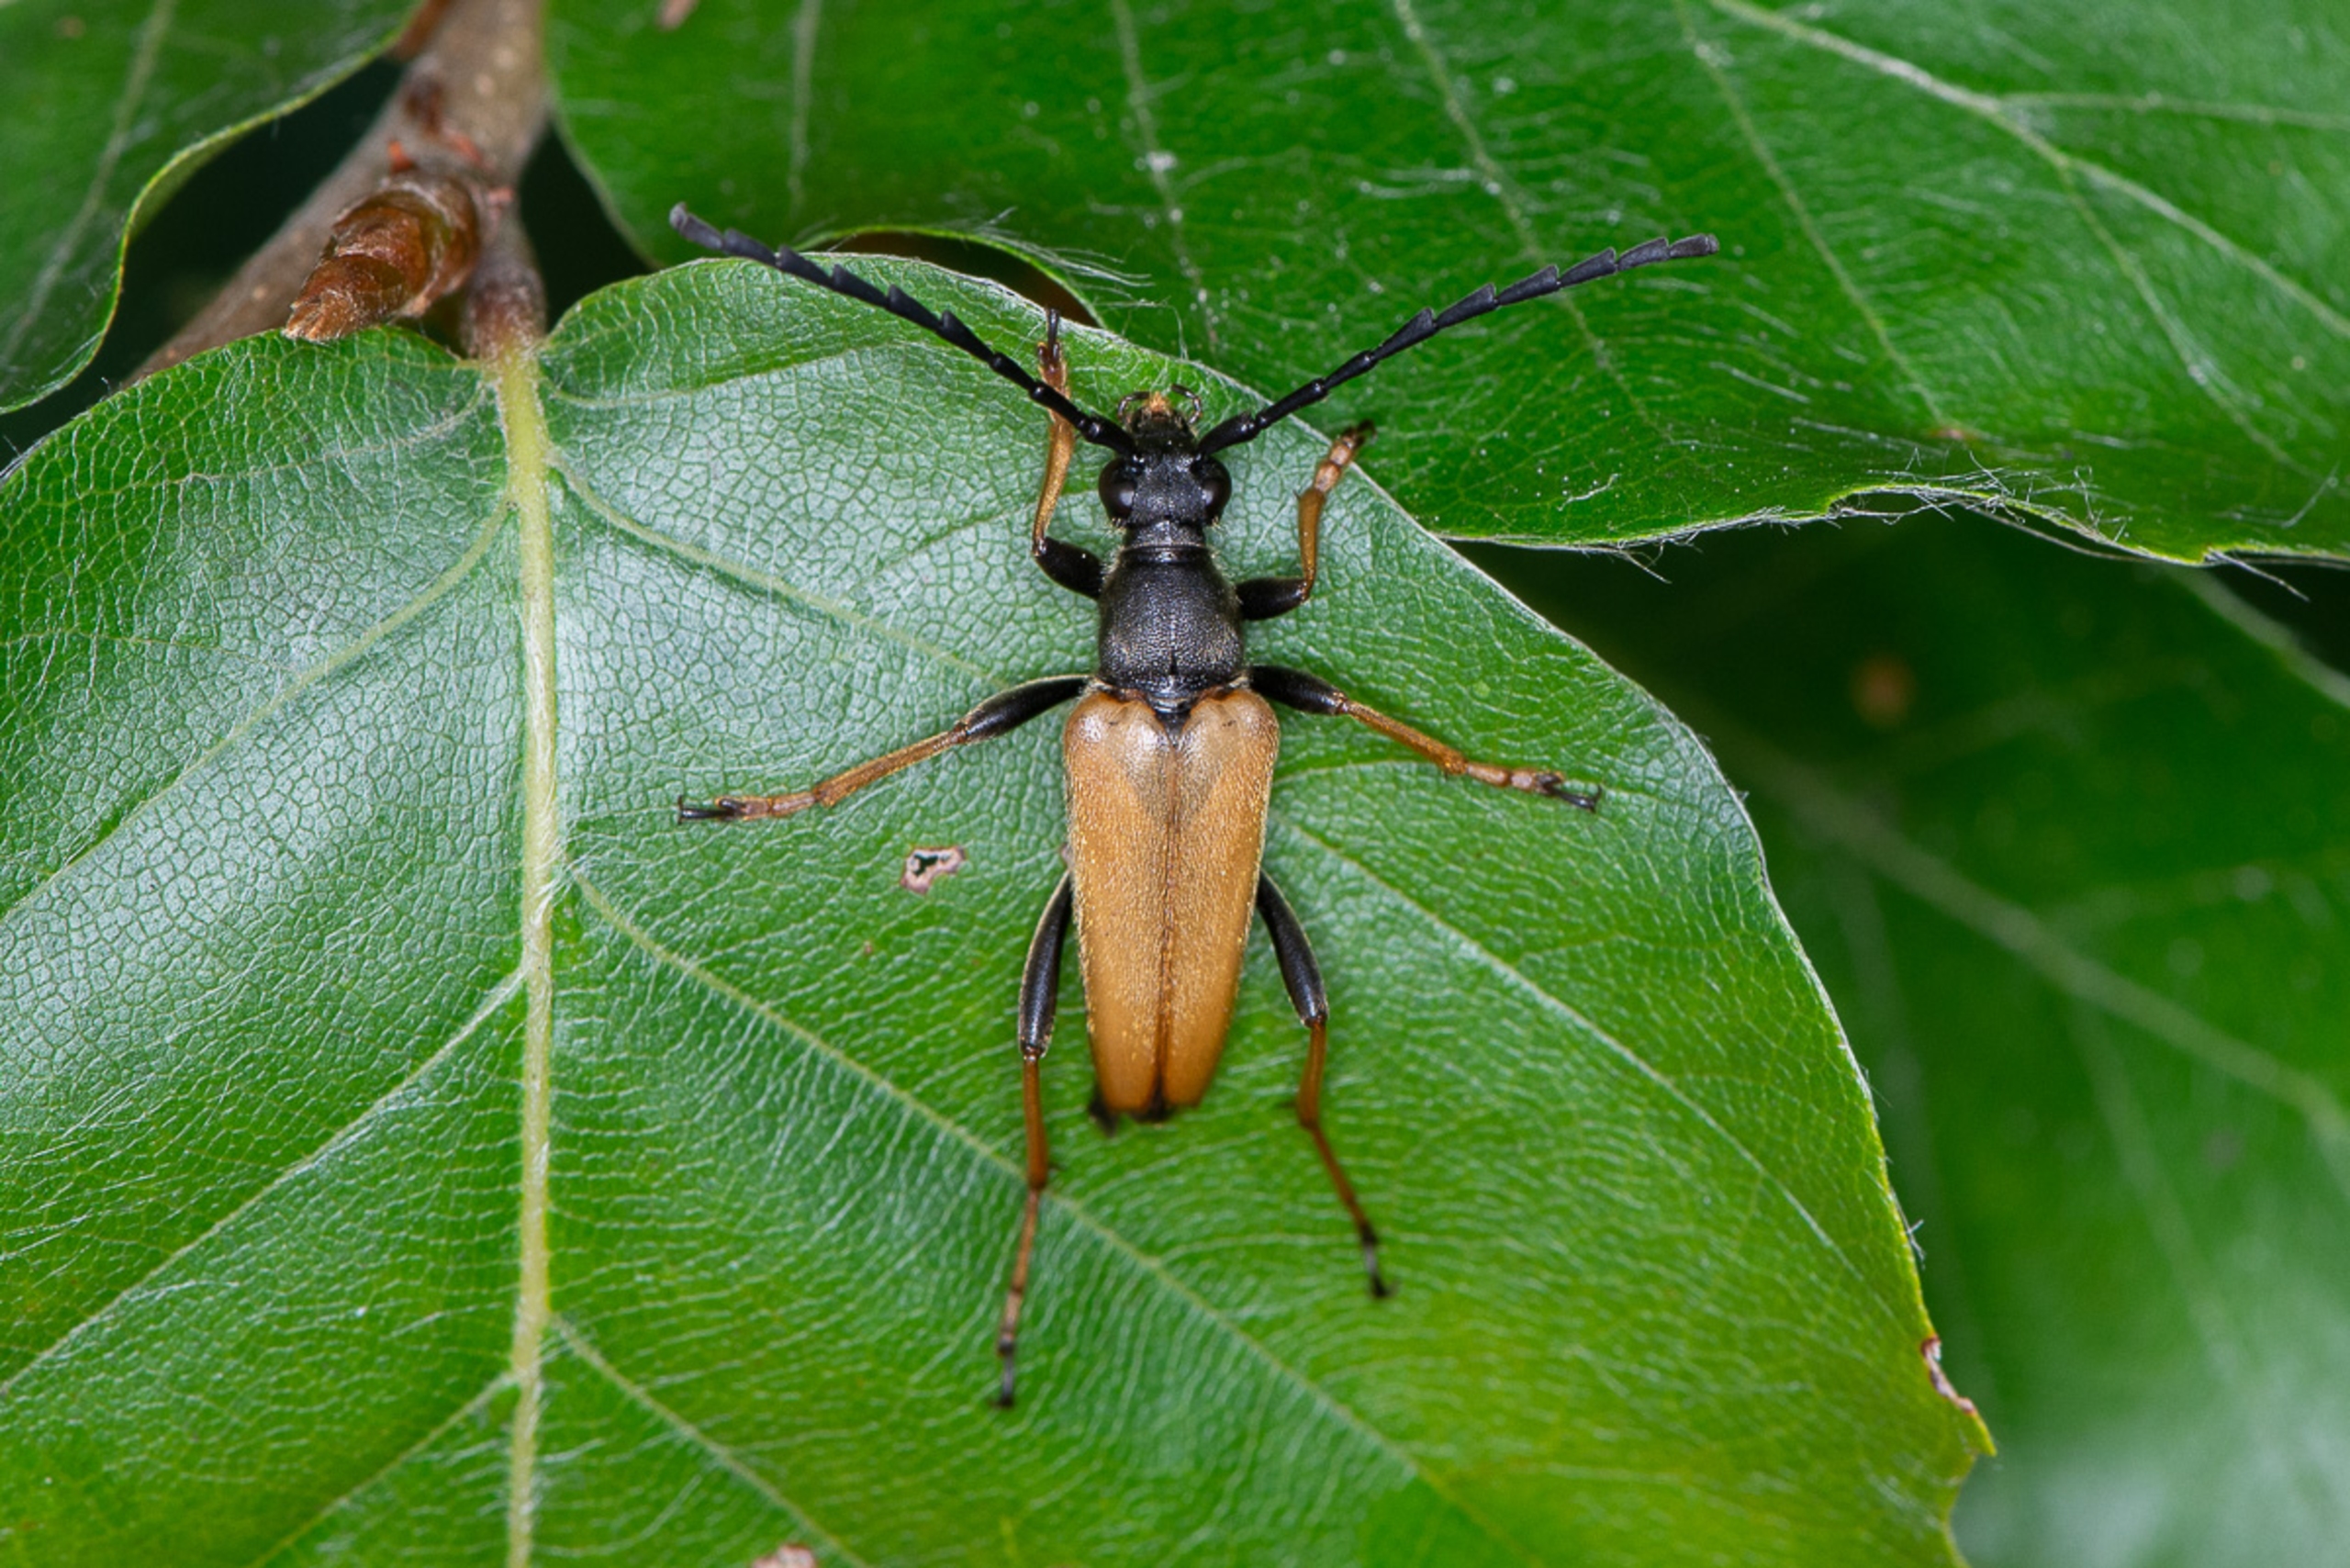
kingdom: Animalia
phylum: Arthropoda
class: Insecta
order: Coleoptera
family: Cerambycidae
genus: Stictoleptura
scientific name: Stictoleptura rubra
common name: Rød blomsterbuk
